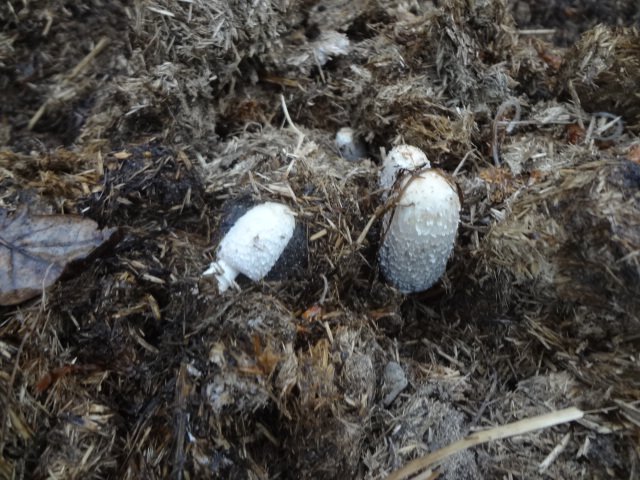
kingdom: Fungi
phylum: Basidiomycota
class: Agaricomycetes
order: Agaricales
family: Agaricaceae
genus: Coprinus
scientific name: Coprinus sterquilinus
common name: møg-parykhat
